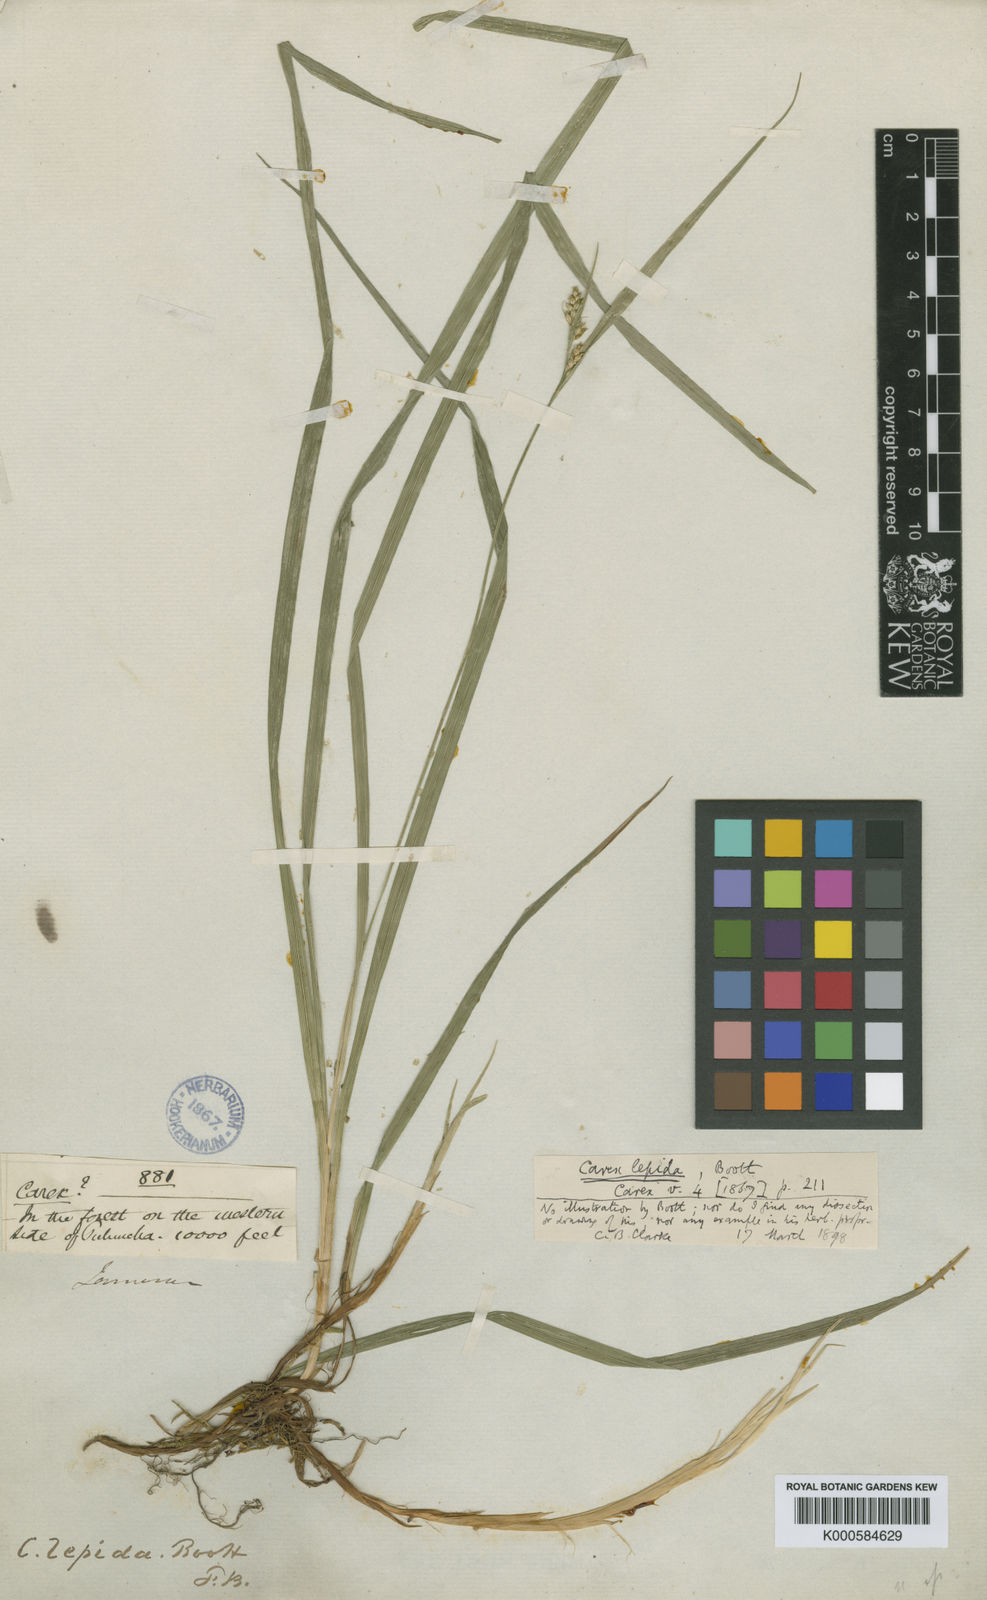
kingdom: Plantae
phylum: Tracheophyta
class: Liliopsida
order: Poales
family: Cyperaceae
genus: Carex
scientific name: Carex lepida
